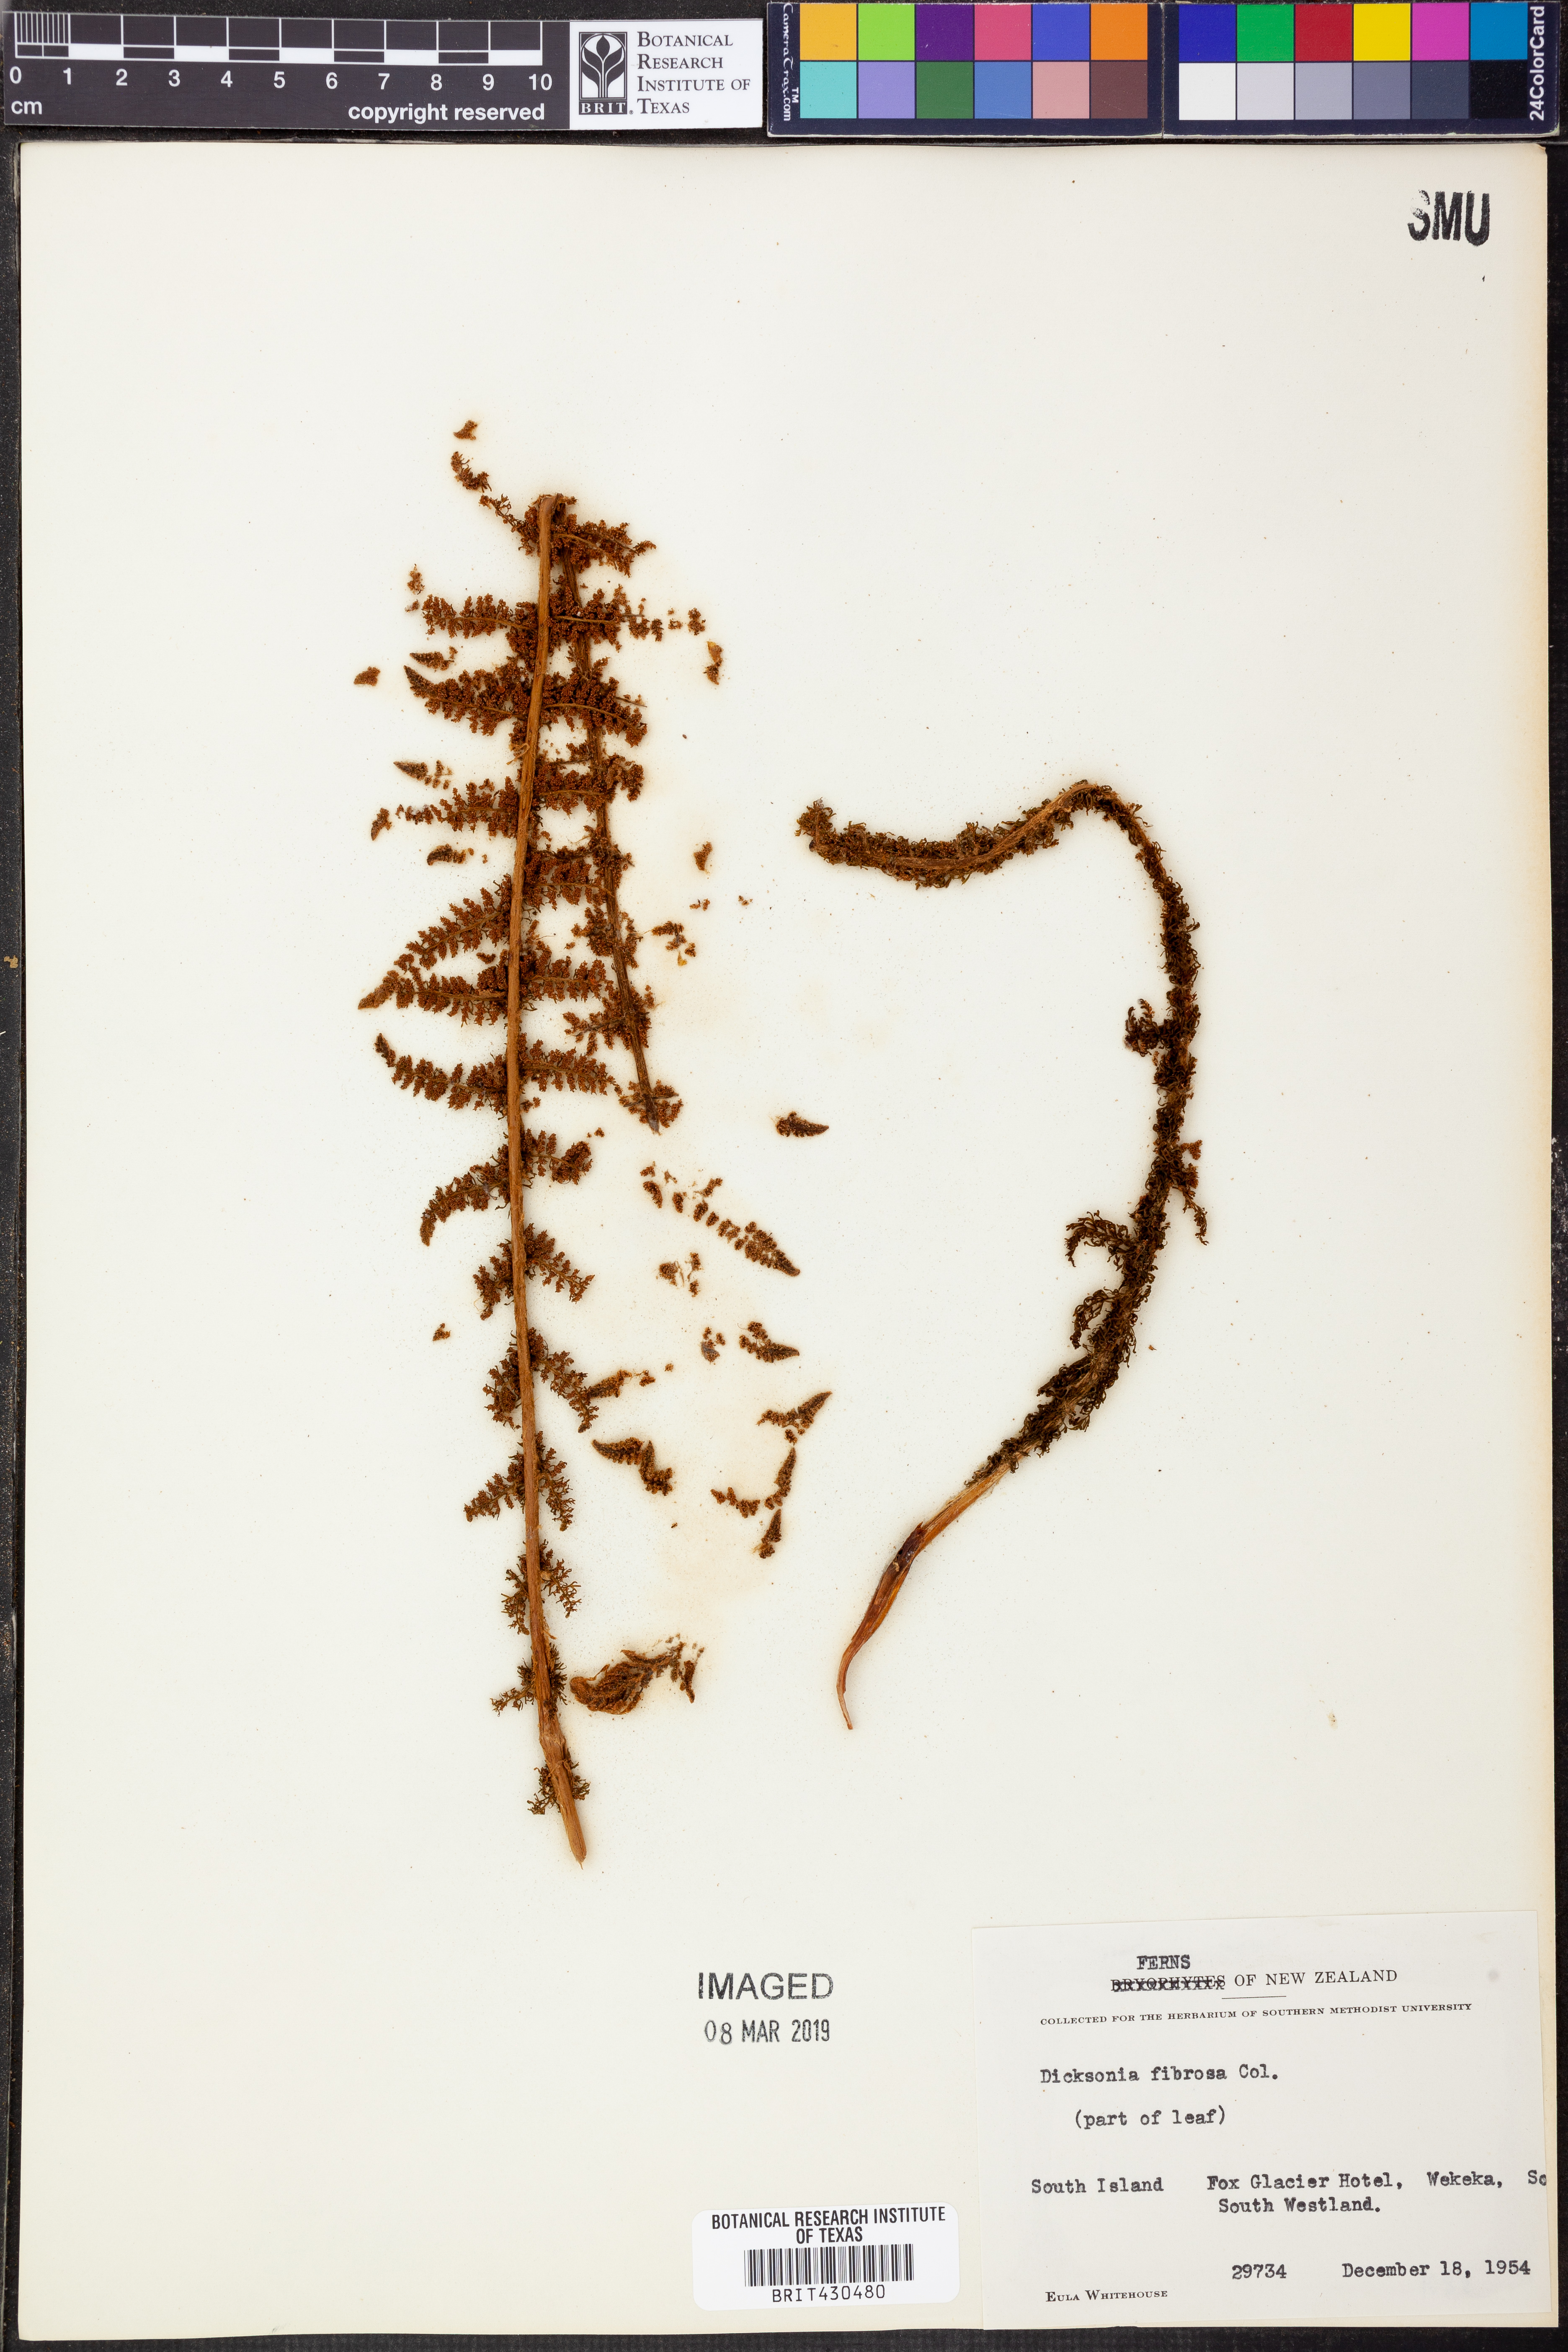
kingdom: Plantae
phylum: Tracheophyta
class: Polypodiopsida
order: Cyatheales
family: Dicksoniaceae
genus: Dicksonia
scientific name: Dicksonia fibrosa
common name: Golden tree fern
